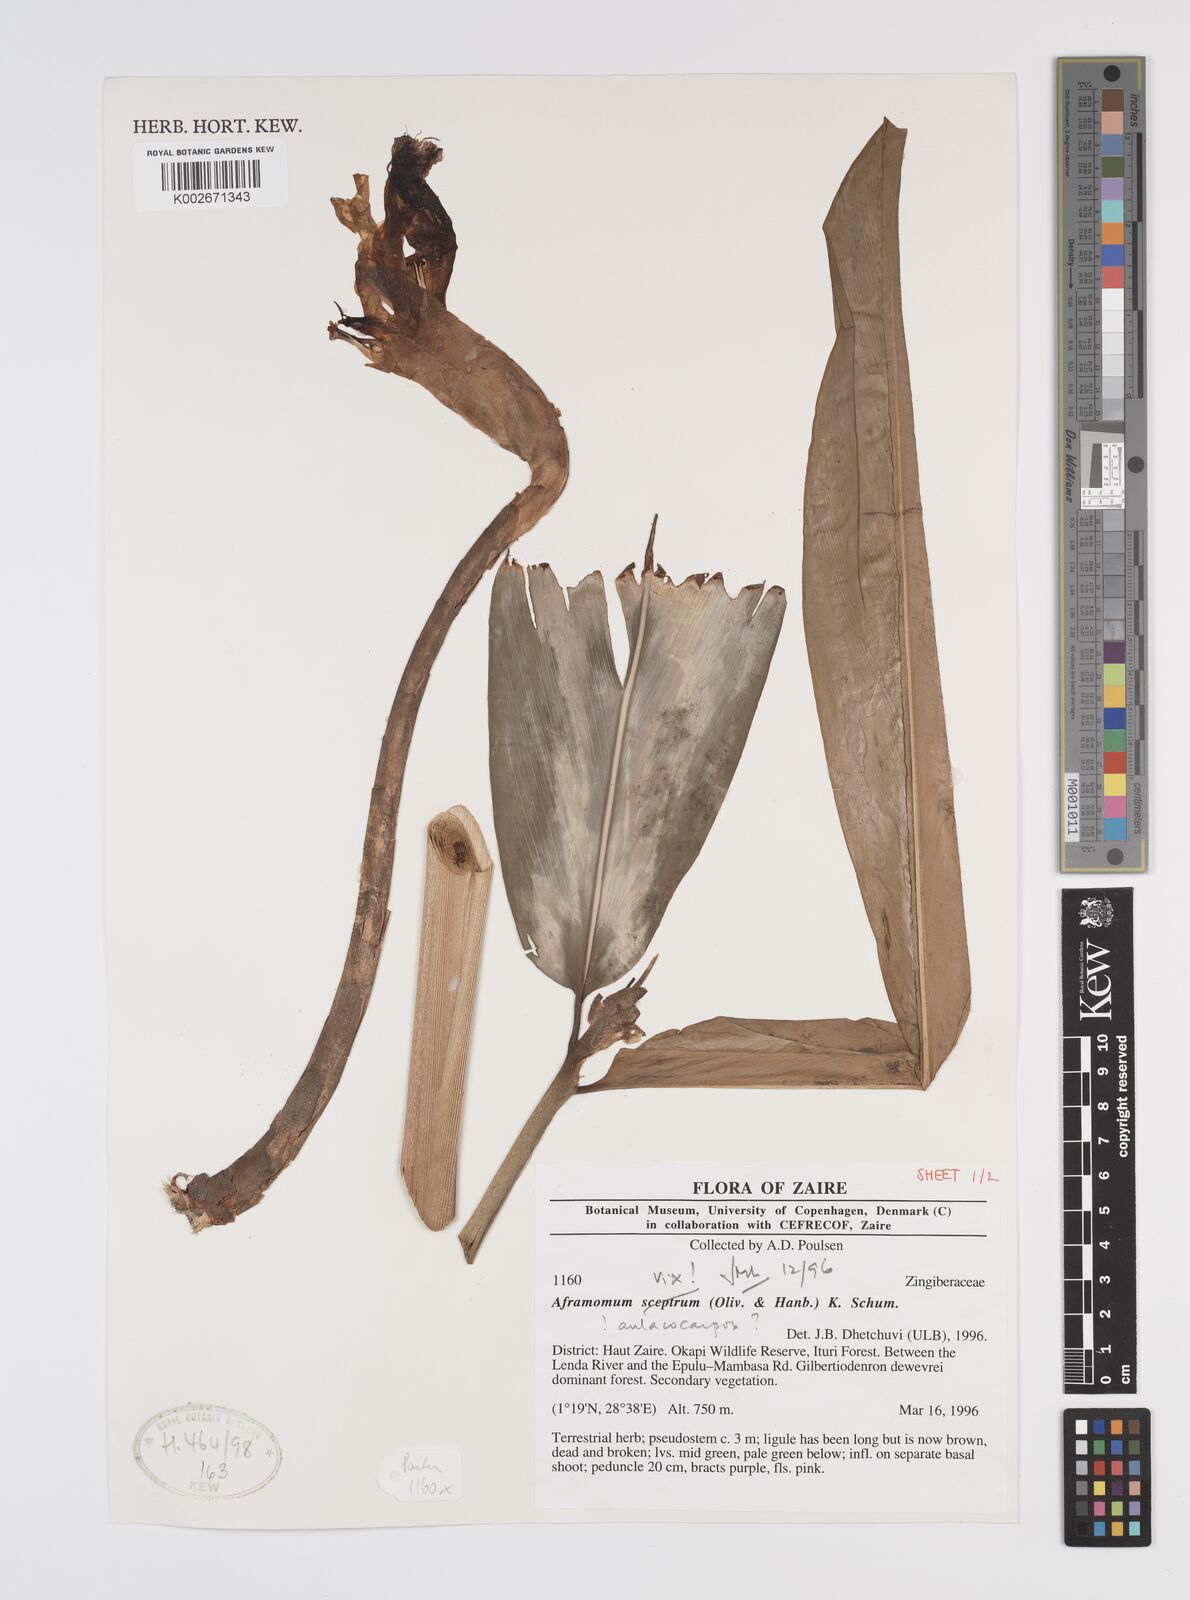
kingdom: Plantae
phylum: Tracheophyta
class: Liliopsida
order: Zingiberales
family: Zingiberaceae
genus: Aframomum
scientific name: Aframomum
